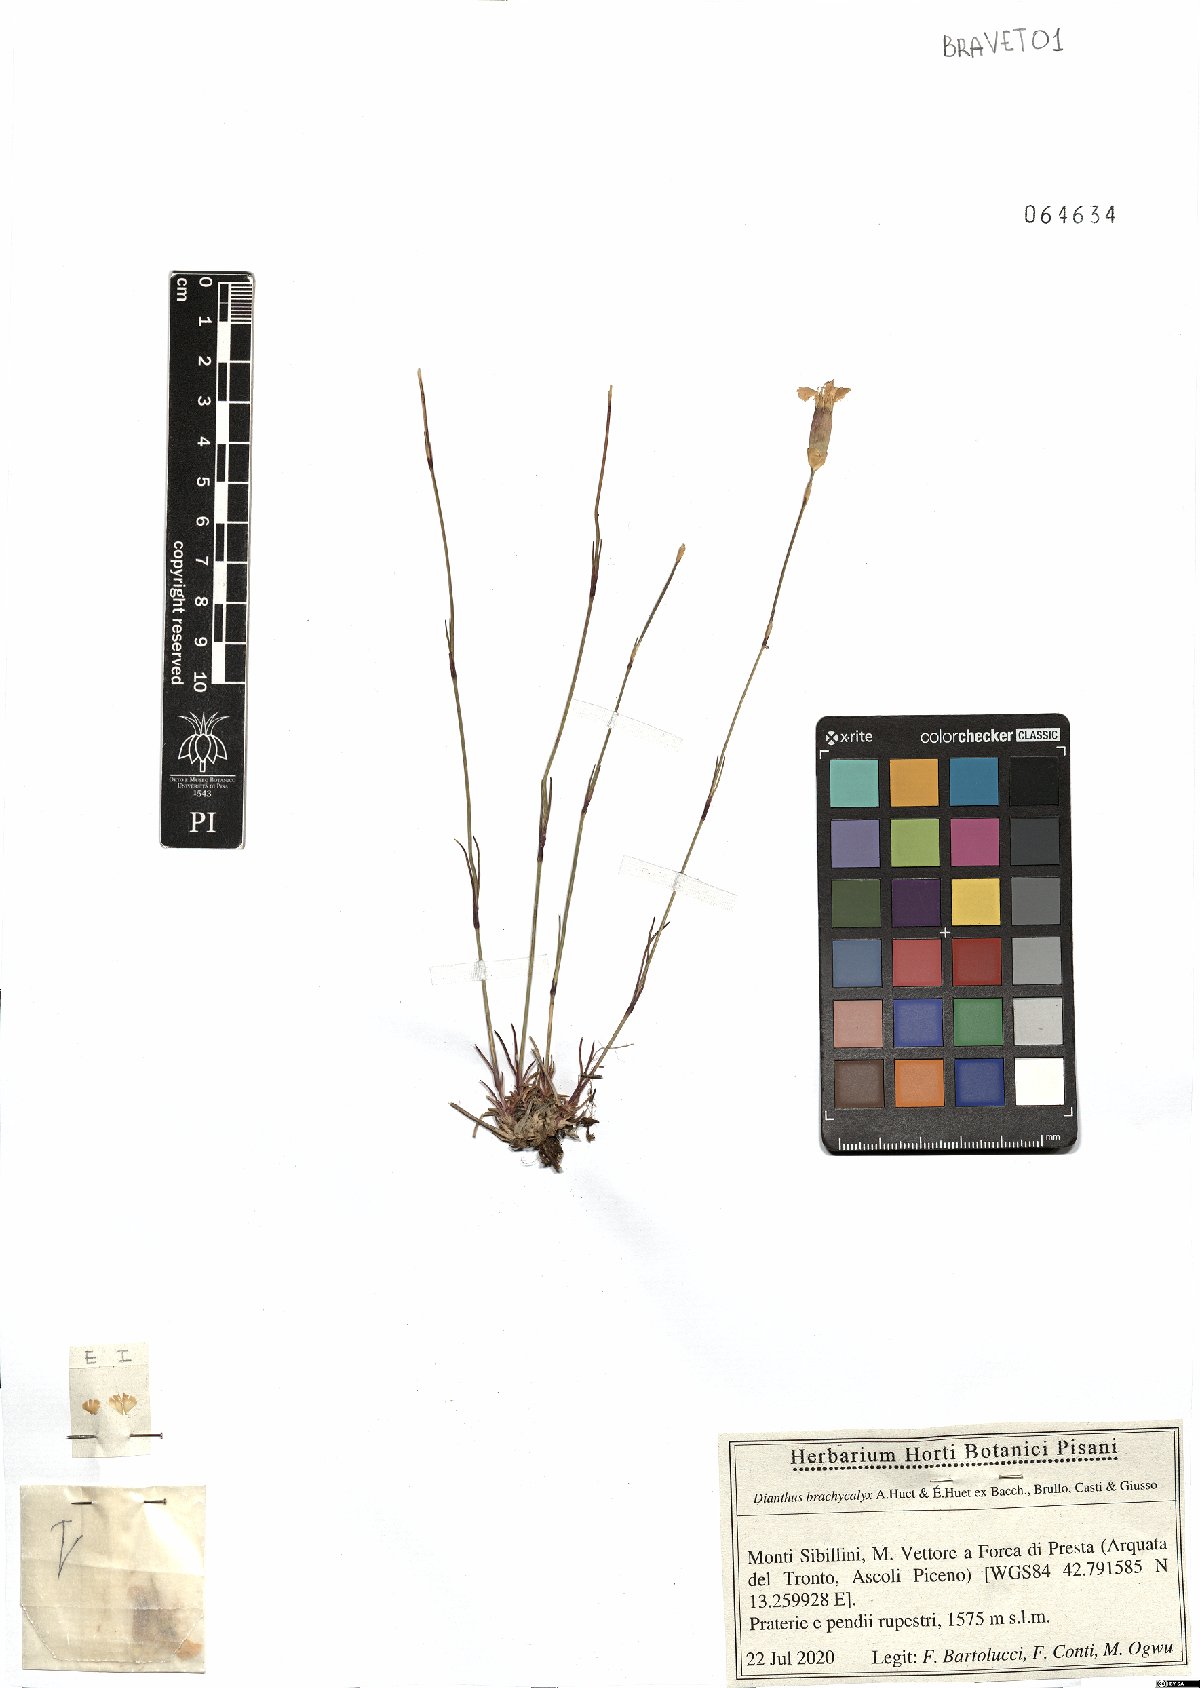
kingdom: Plantae
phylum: Tracheophyta
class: Magnoliopsida
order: Caryophyllales
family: Caryophyllaceae
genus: Dianthus
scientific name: Dianthus brachycalyx
